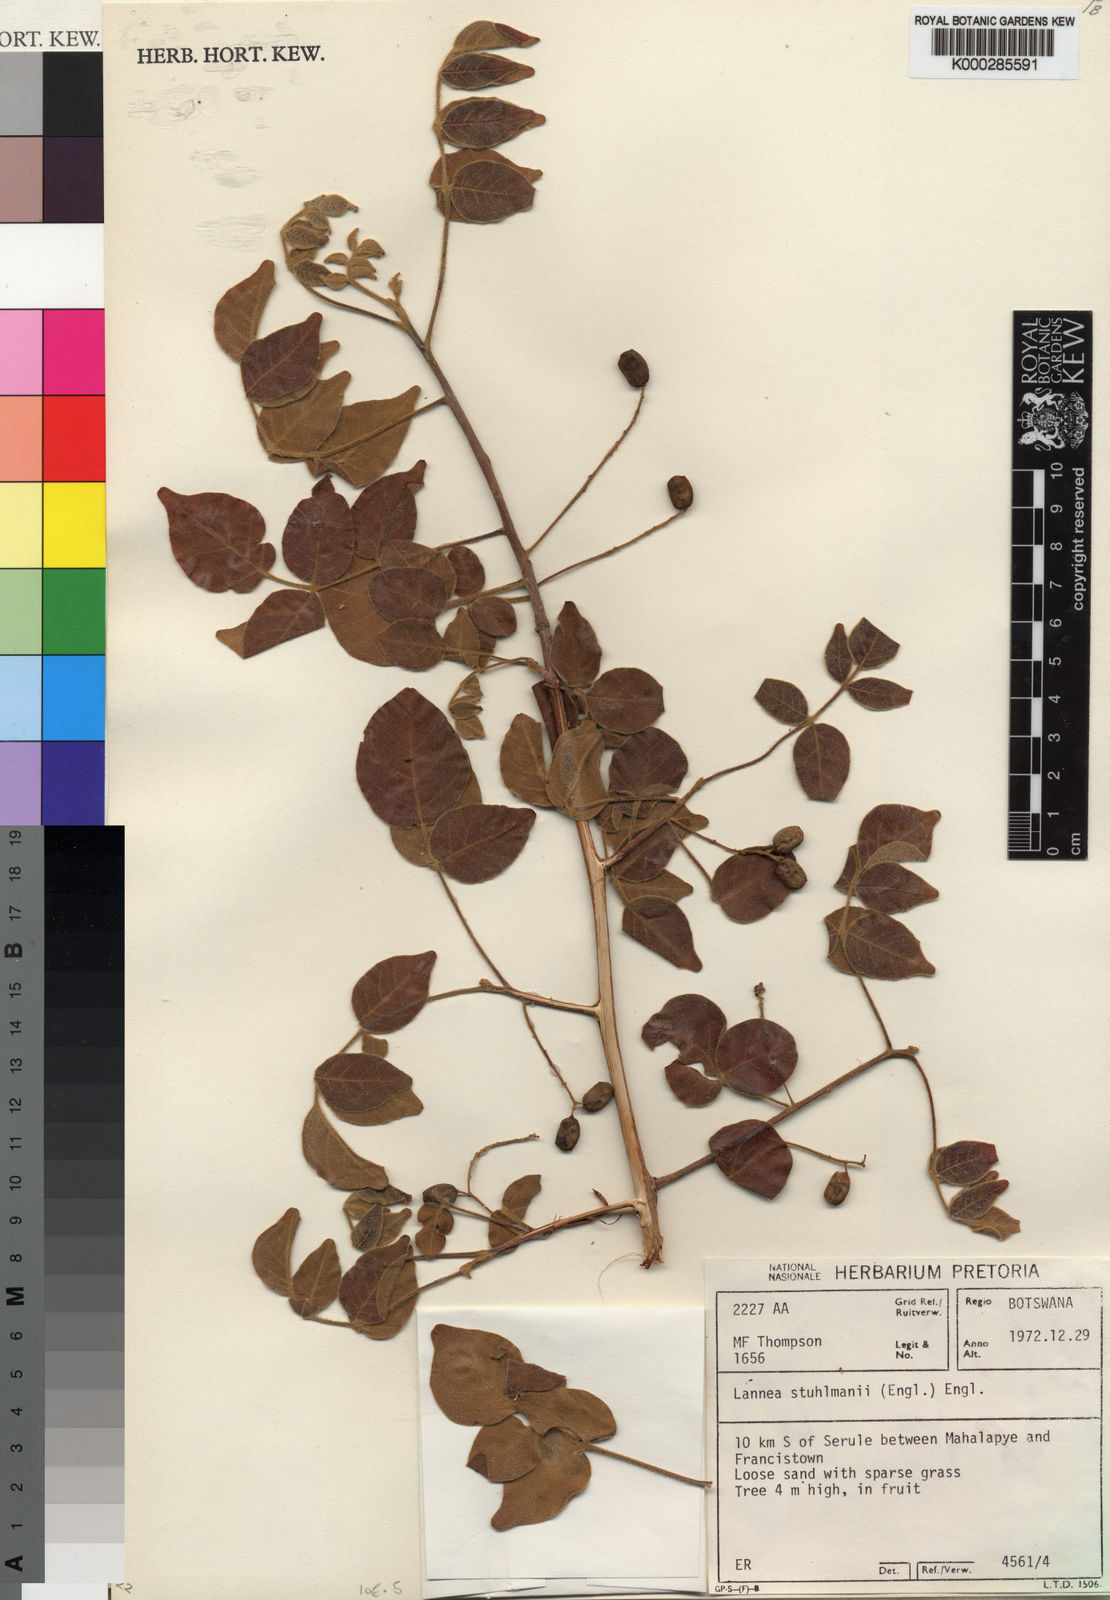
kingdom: Plantae
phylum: Tracheophyta
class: Magnoliopsida
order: Sapindales
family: Anacardiaceae
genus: Lannea
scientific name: Lannea schweinfurthii
